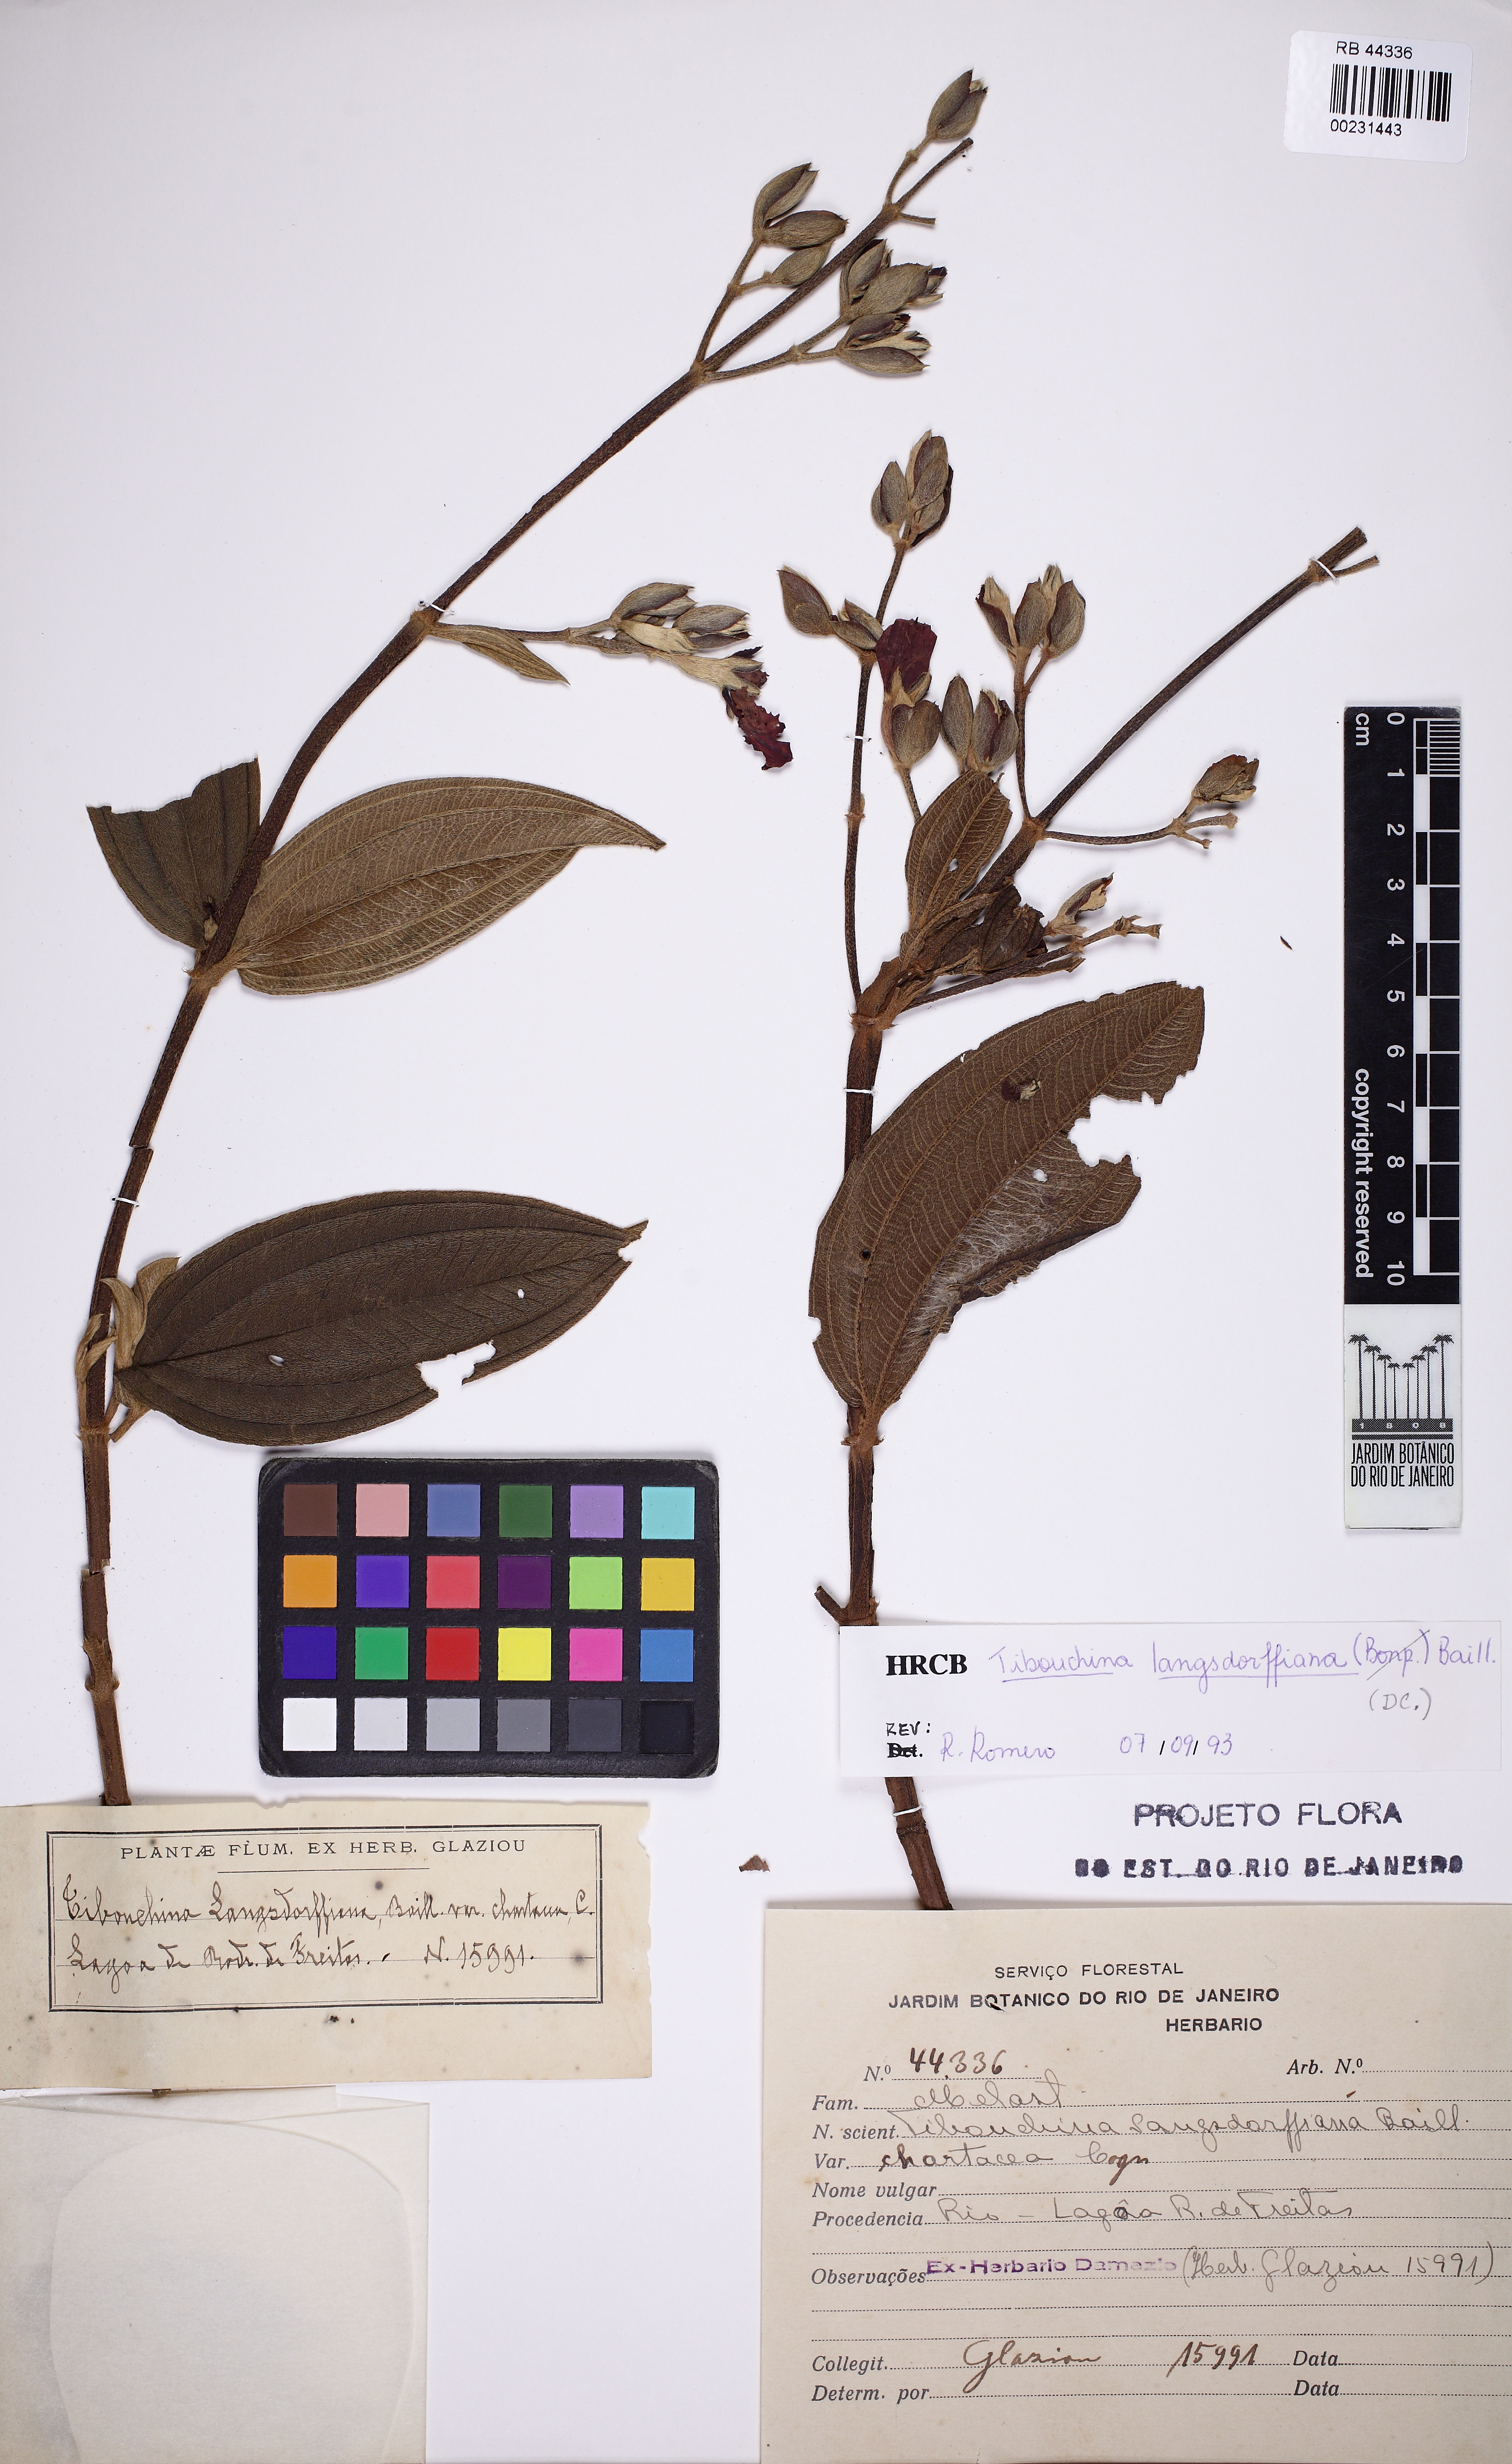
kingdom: Plantae
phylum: Tracheophyta
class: Magnoliopsida
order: Myrtales
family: Melastomataceae
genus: Andesanthus
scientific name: Andesanthus lepidotus
